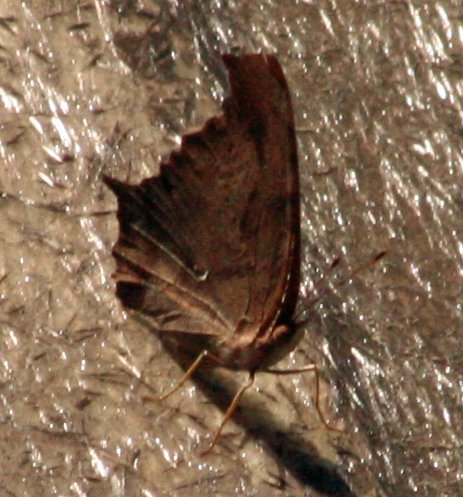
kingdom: Animalia
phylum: Arthropoda
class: Insecta
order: Lepidoptera
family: Nymphalidae
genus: Polygonia
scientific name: Polygonia interrogationis
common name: Question Mark
